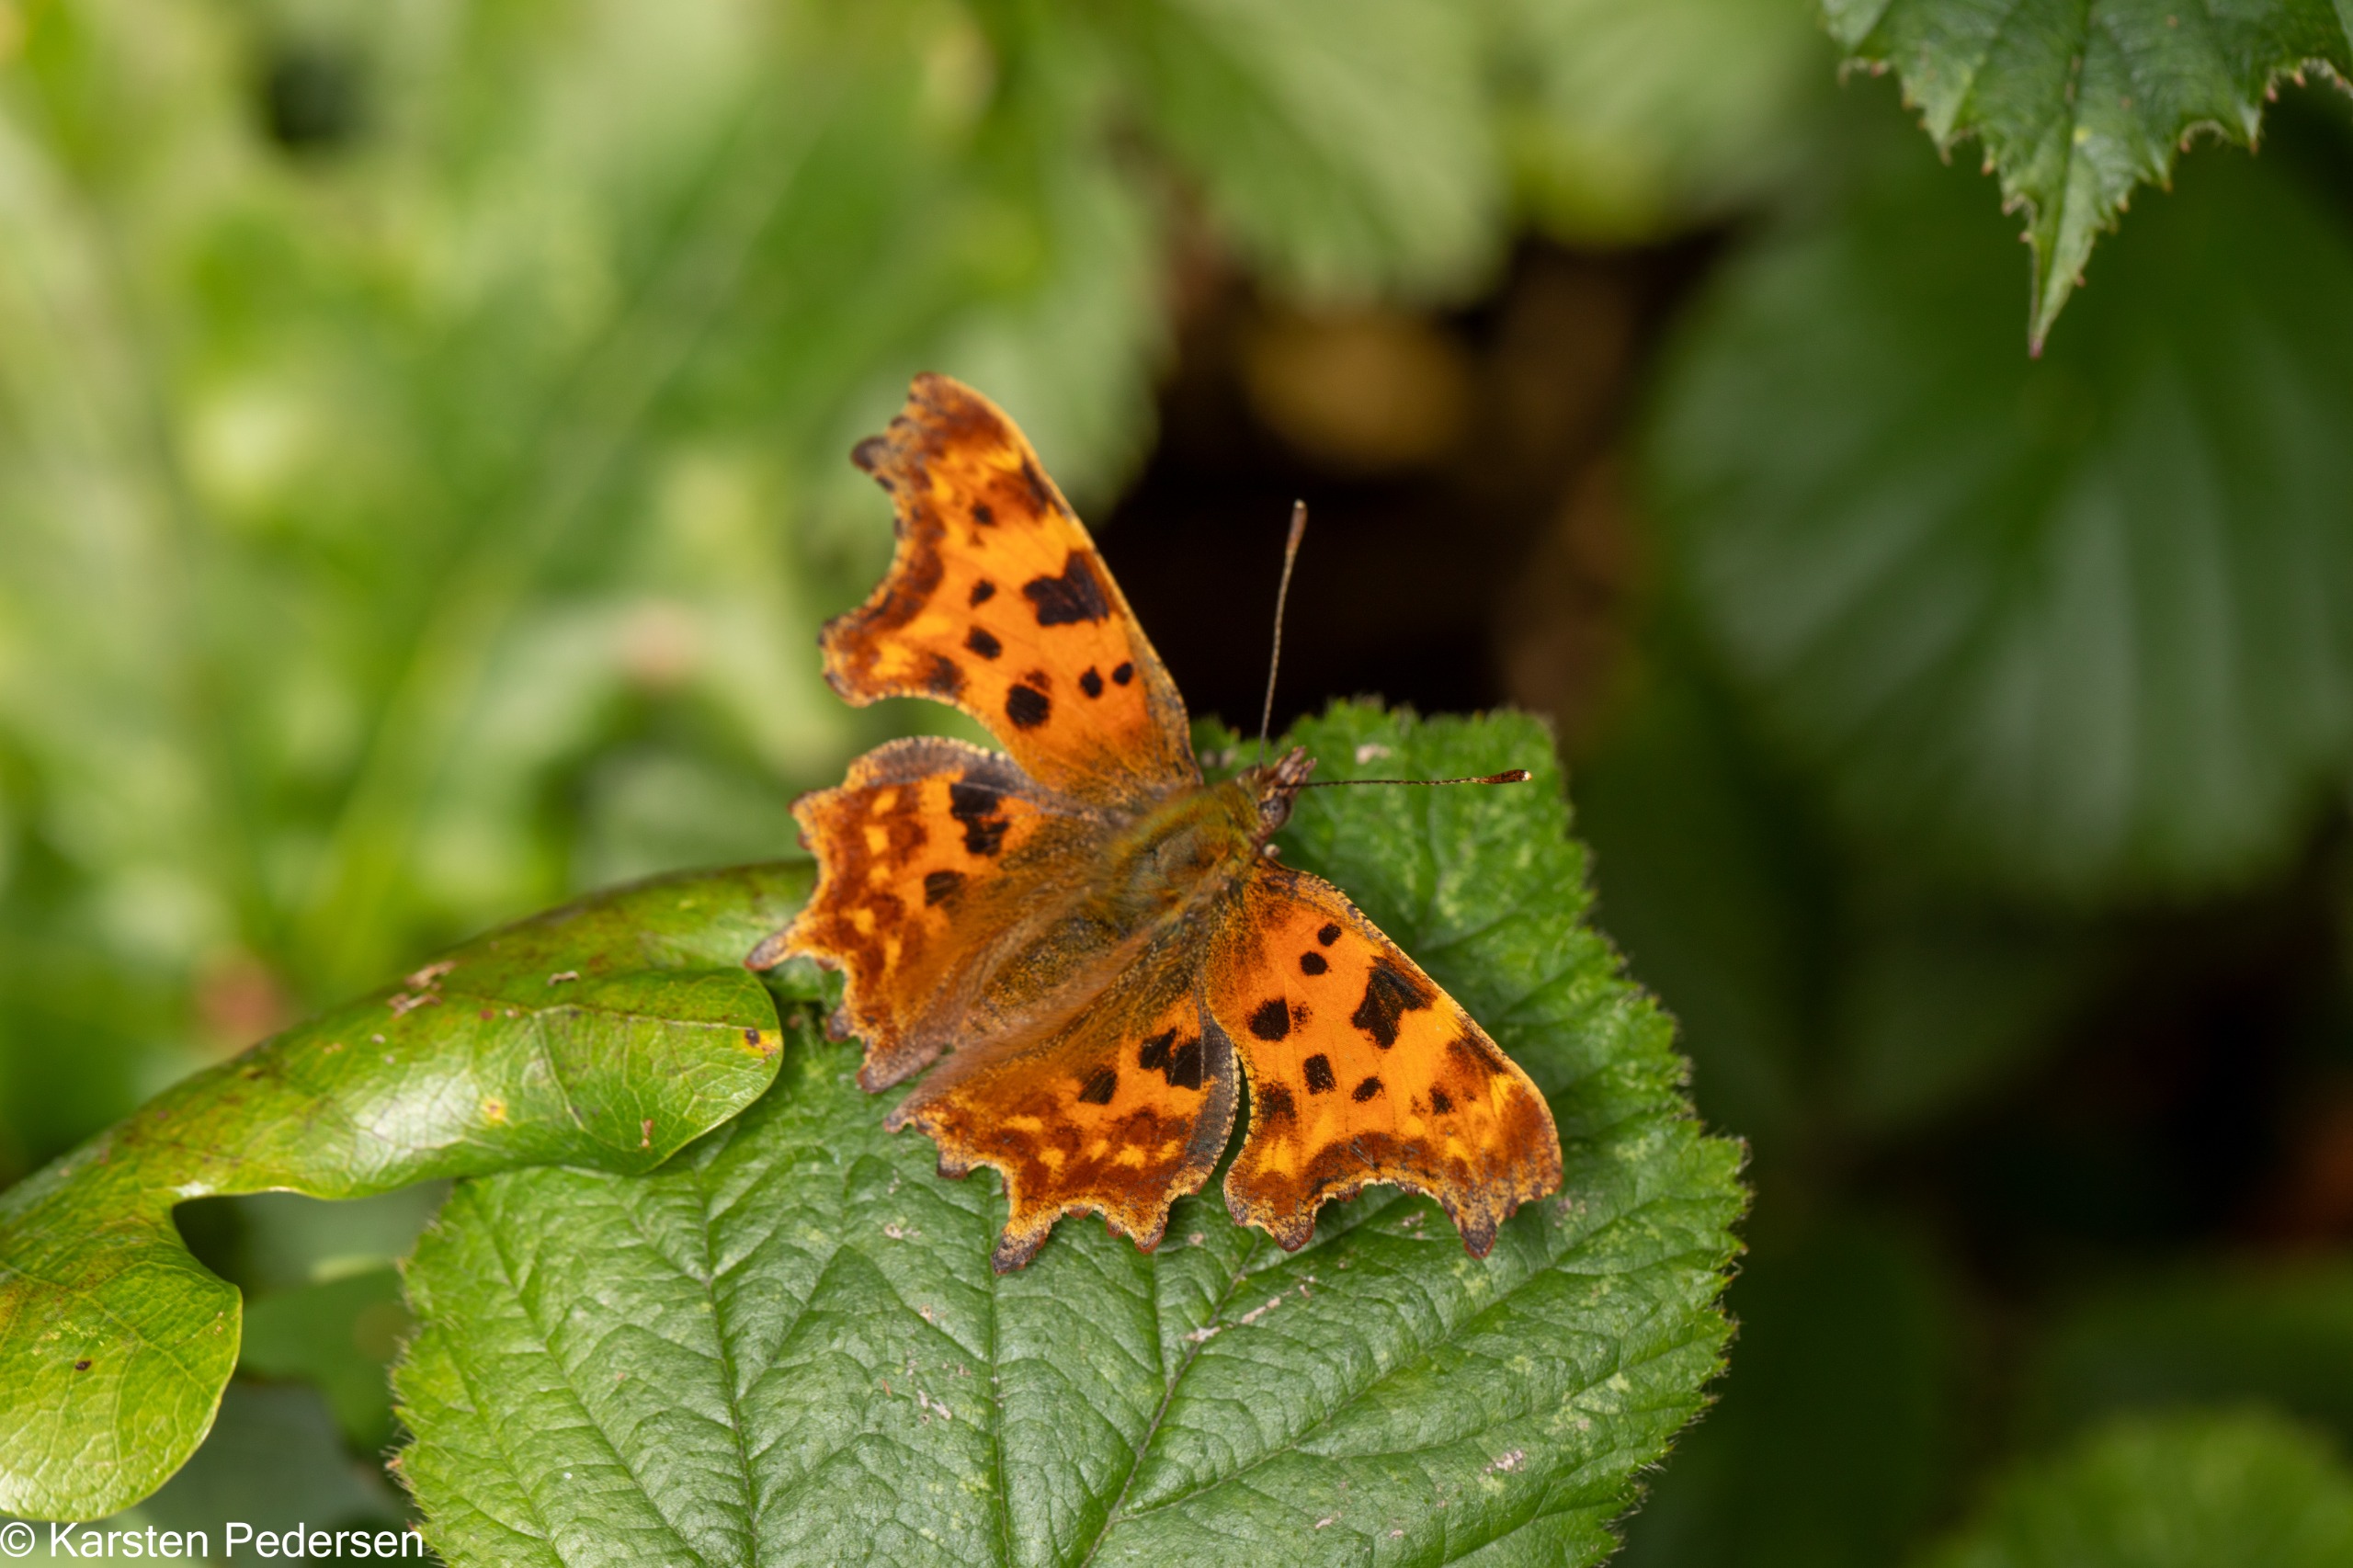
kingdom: Animalia
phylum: Arthropoda
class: Insecta
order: Lepidoptera
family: Nymphalidae
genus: Polygonia
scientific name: Polygonia c-album
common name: Det hvide C
